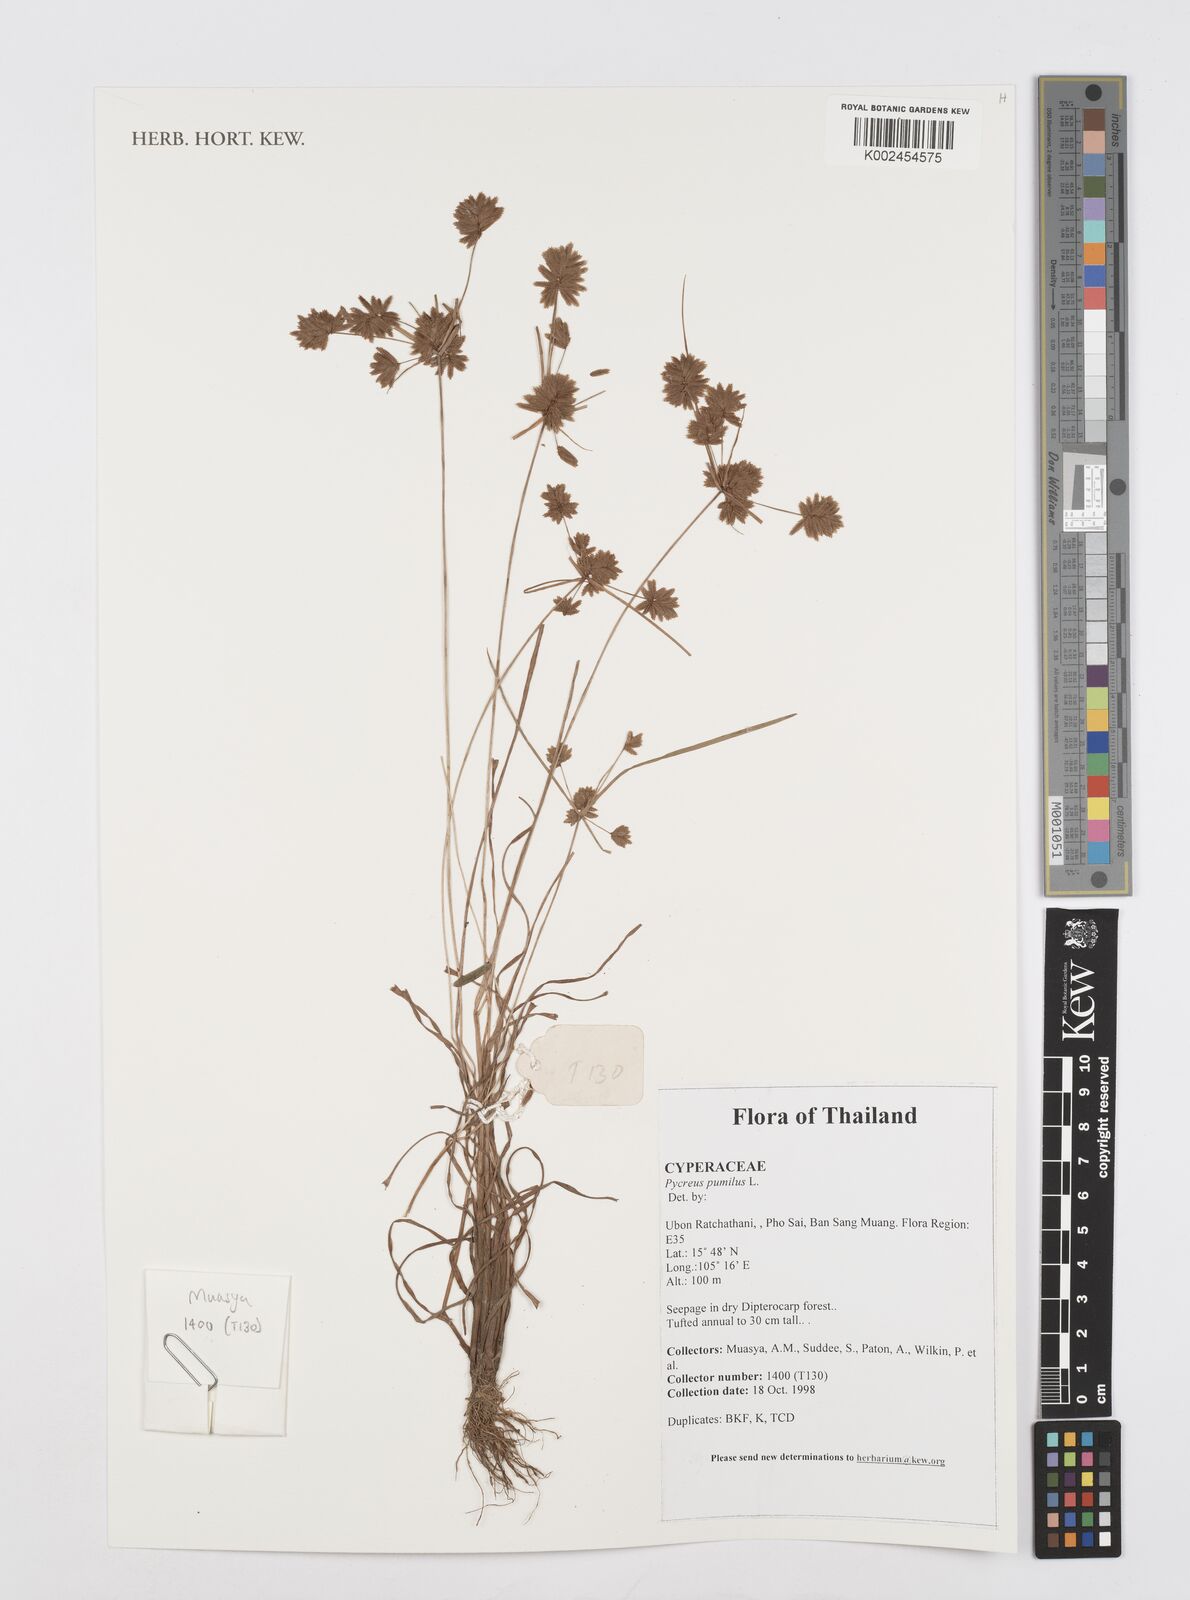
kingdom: Plantae
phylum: Tracheophyta
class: Liliopsida
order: Poales
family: Cyperaceae
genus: Cyperus
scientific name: Cyperus polystachyos
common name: Bunchy flat sedge
